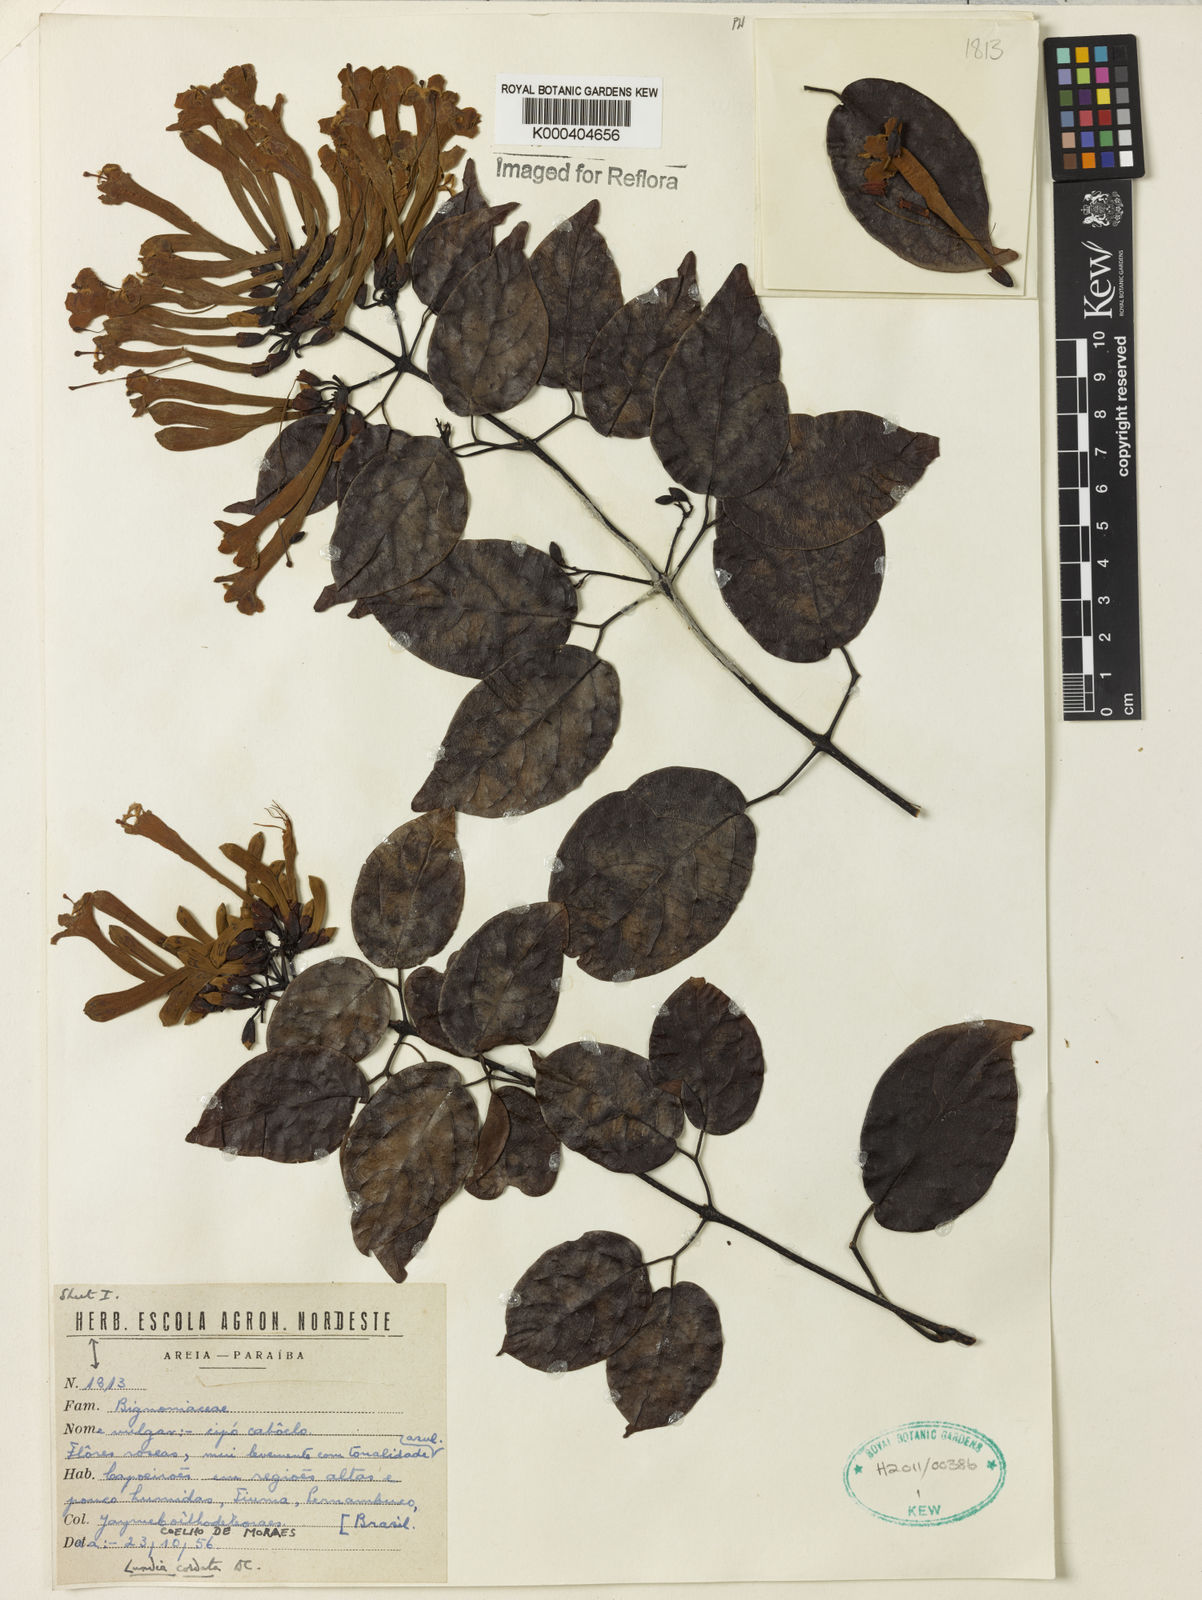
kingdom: Plantae
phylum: Tracheophyta
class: Magnoliopsida
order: Lamiales
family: Bignoniaceae
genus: Lundia
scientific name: Lundia corymbifera
